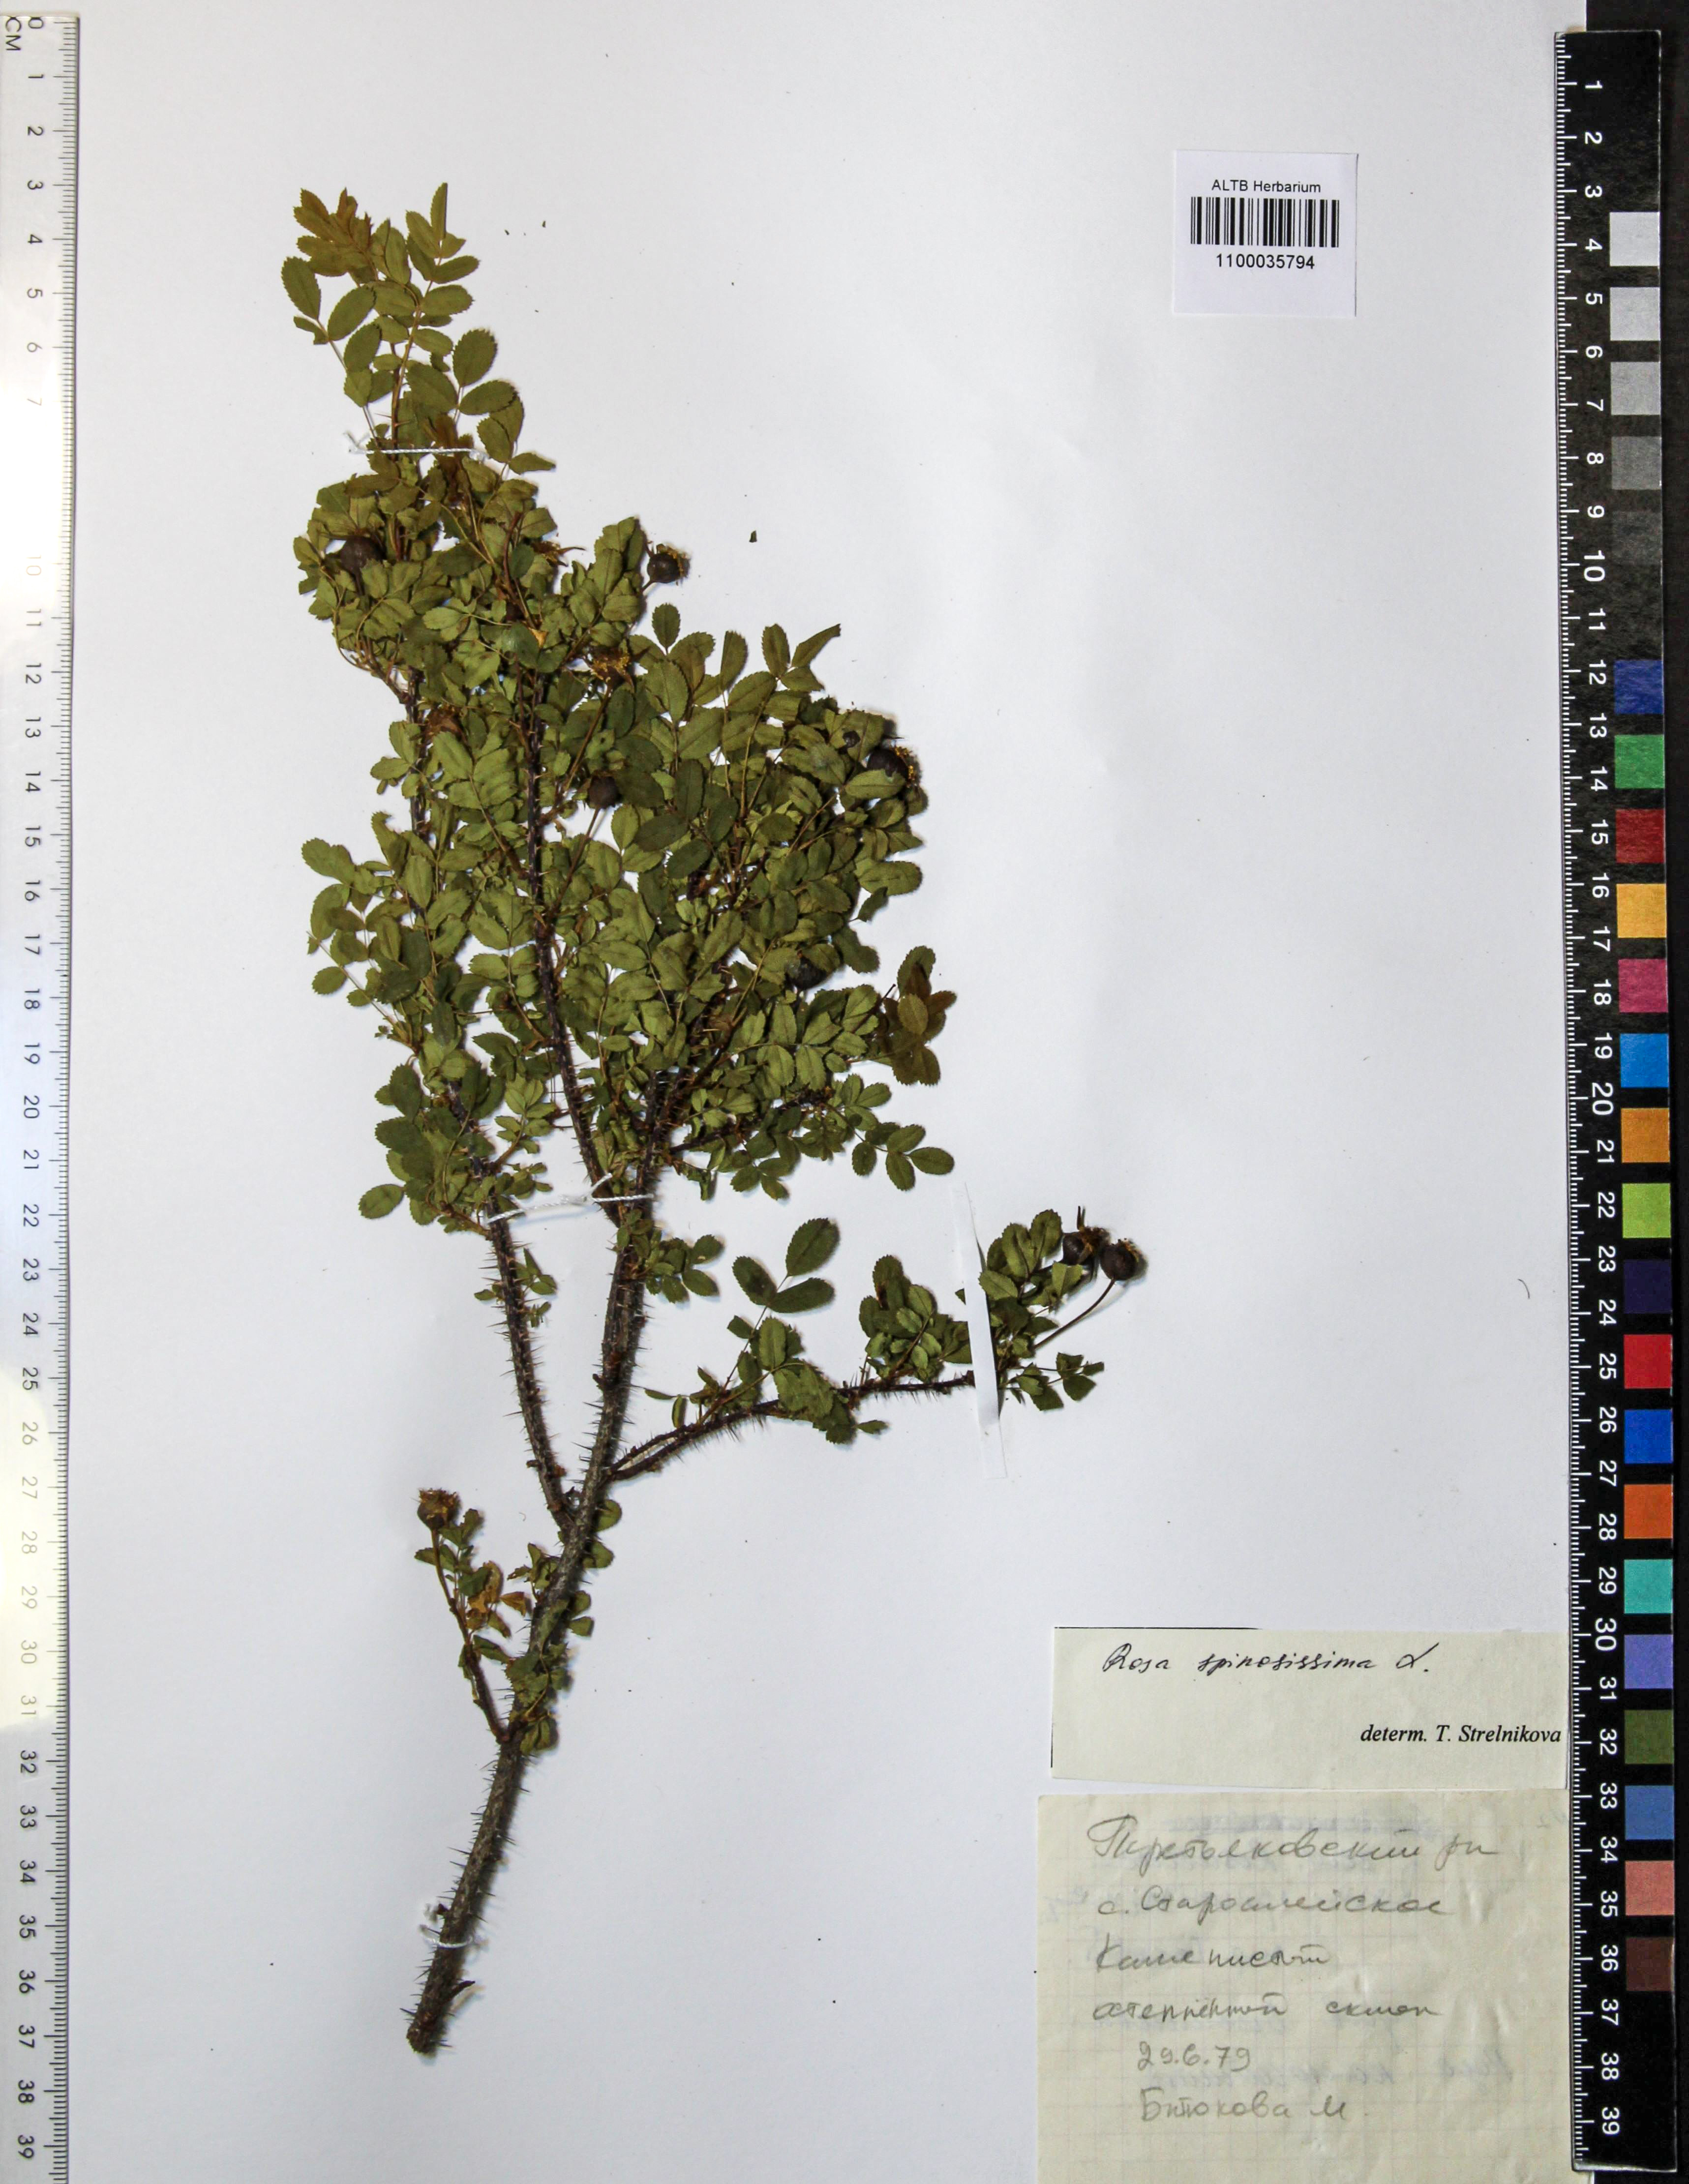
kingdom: Plantae
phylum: Tracheophyta
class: Magnoliopsida
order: Rosales
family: Rosaceae
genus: Rosa
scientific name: Rosa spinosissima
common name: Burnet rose
